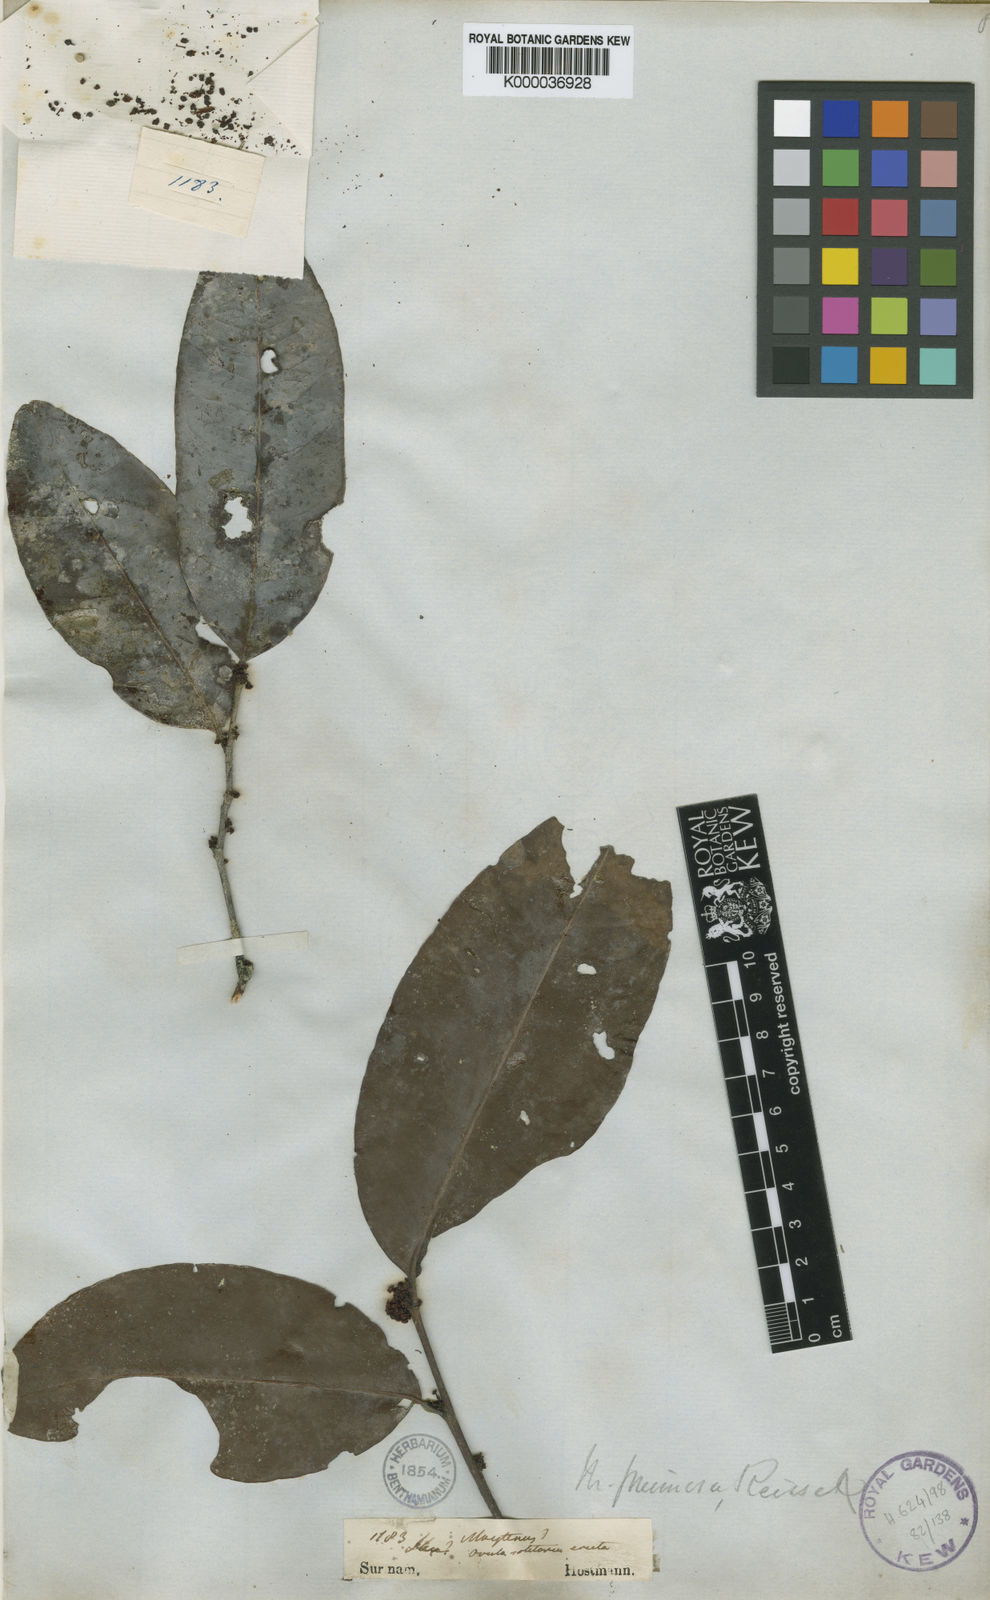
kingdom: Plantae
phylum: Tracheophyta
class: Magnoliopsida
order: Celastrales
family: Celastraceae
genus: Maytenus
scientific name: Maytenus
